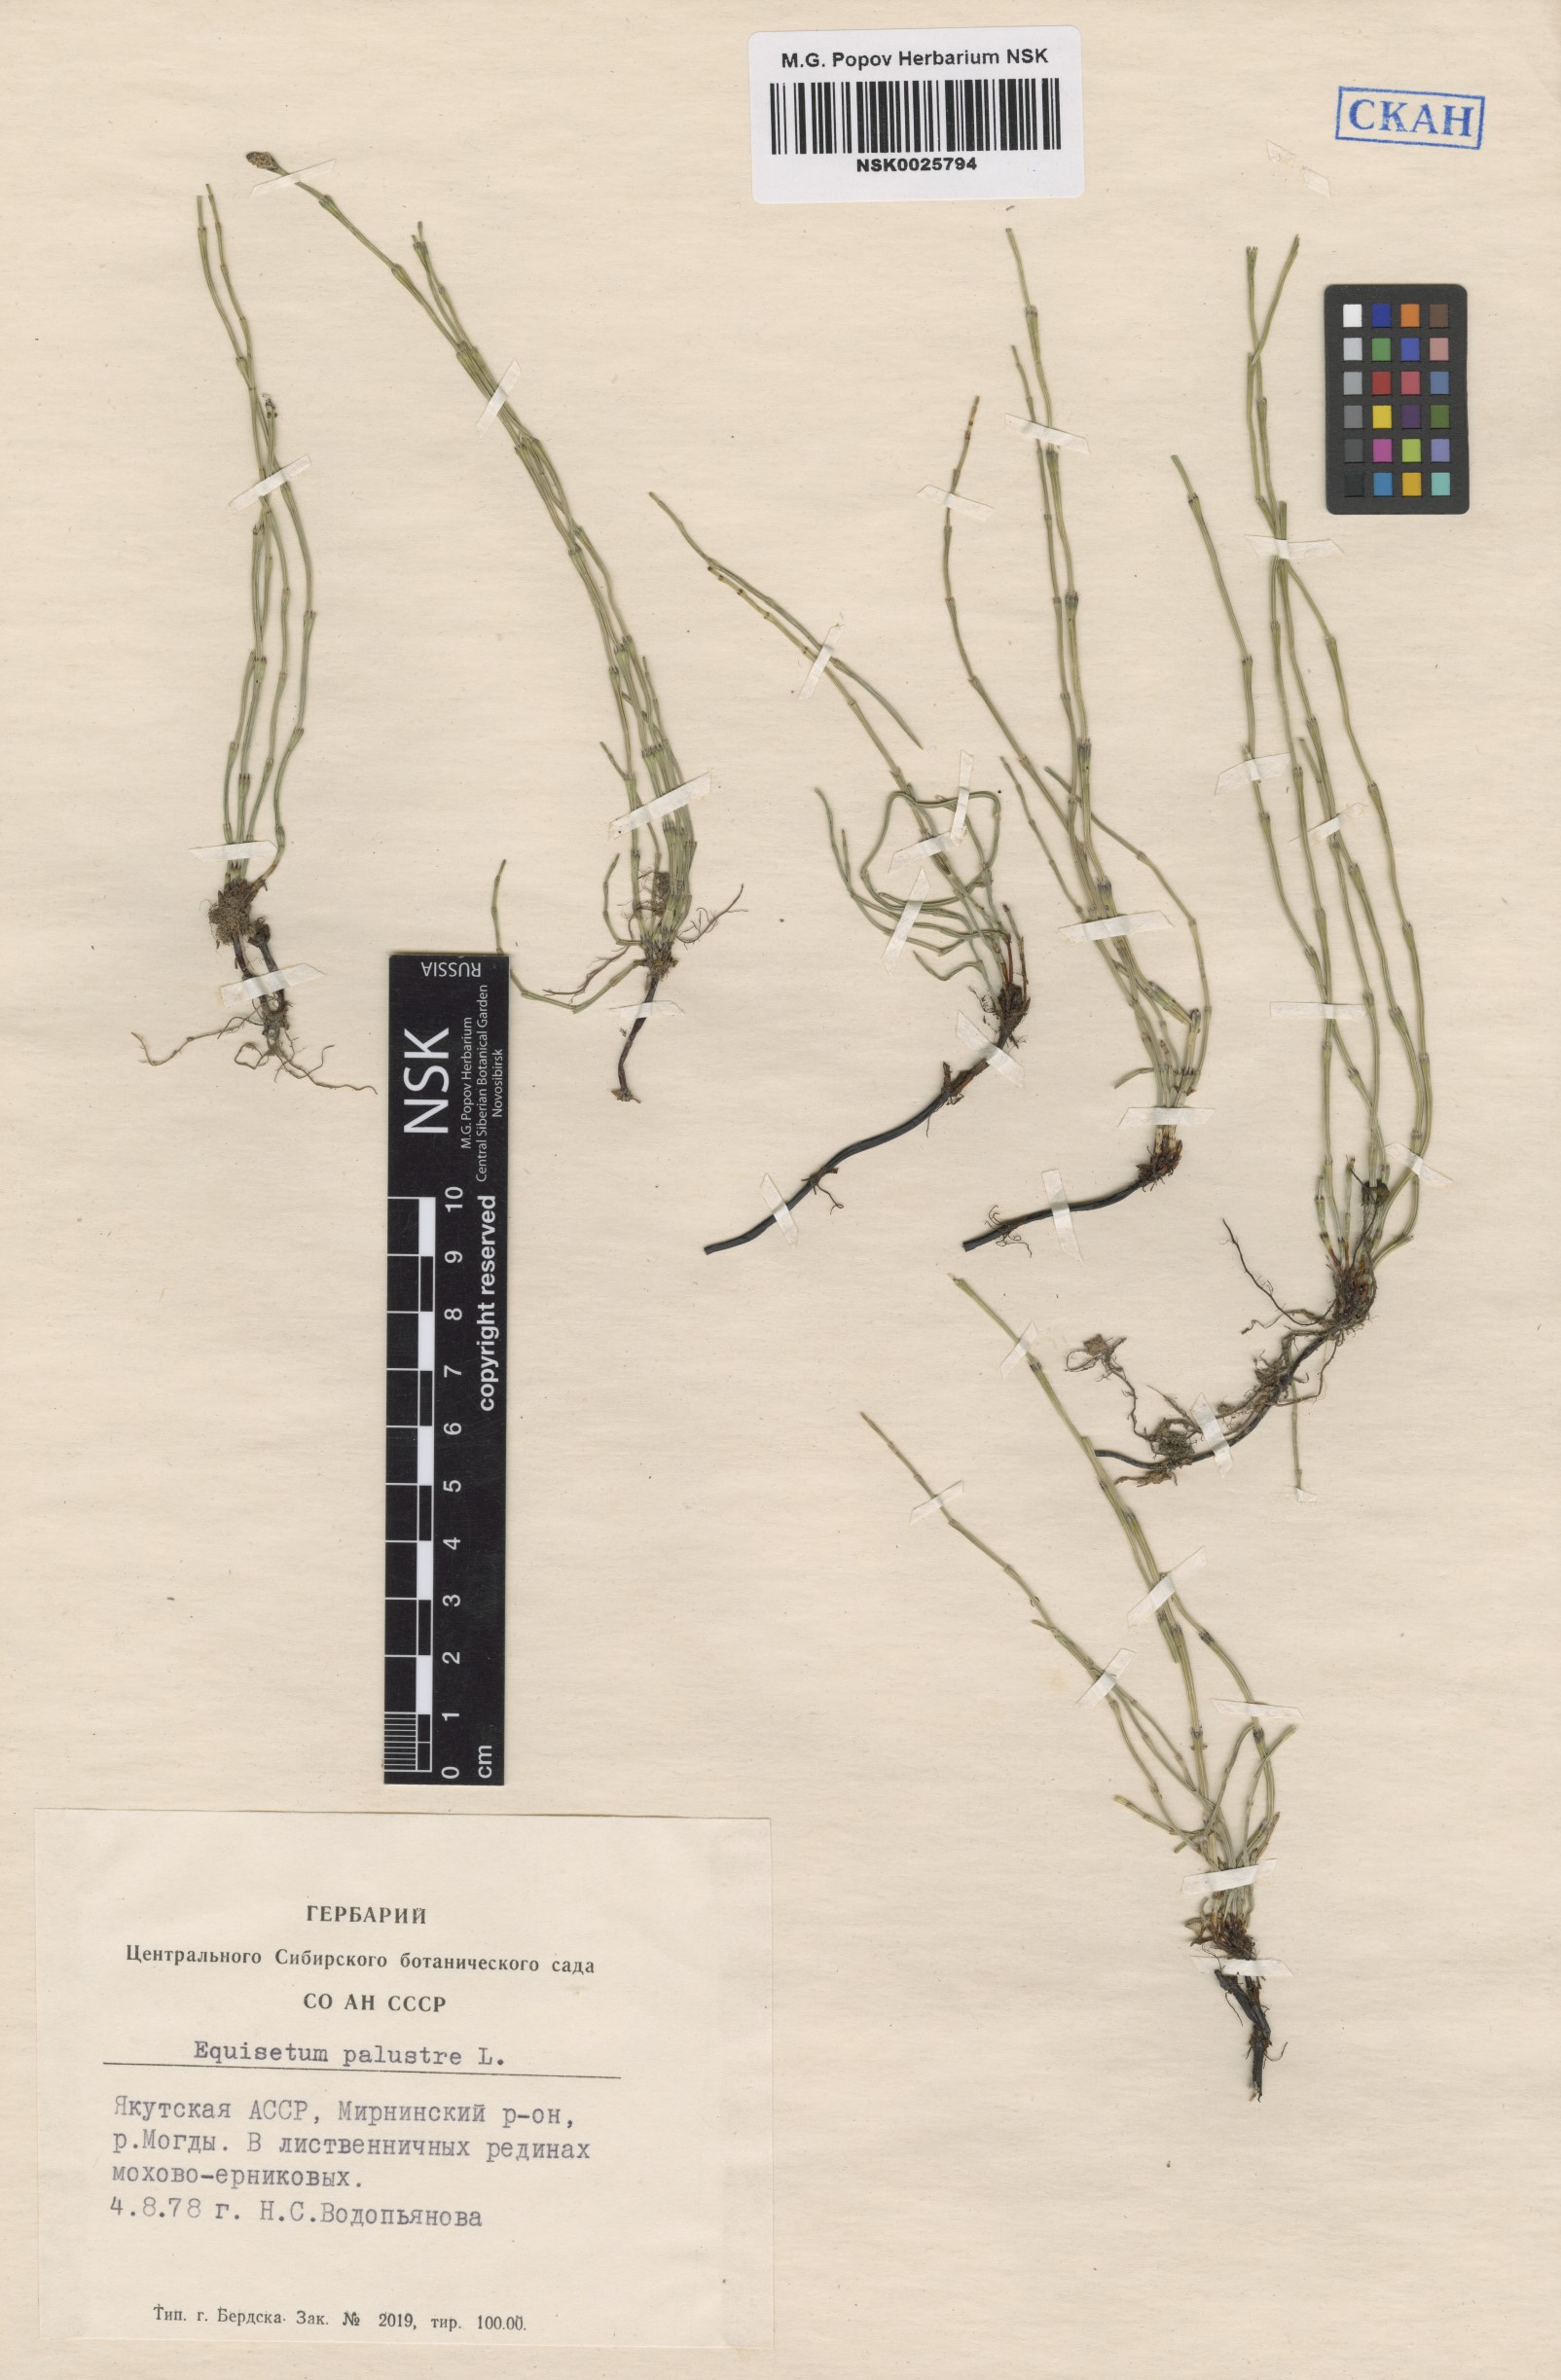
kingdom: Plantae
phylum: Tracheophyta
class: Polypodiopsida
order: Equisetales
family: Equisetaceae
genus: Equisetum
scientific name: Equisetum palustre
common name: Marsh horsetail
